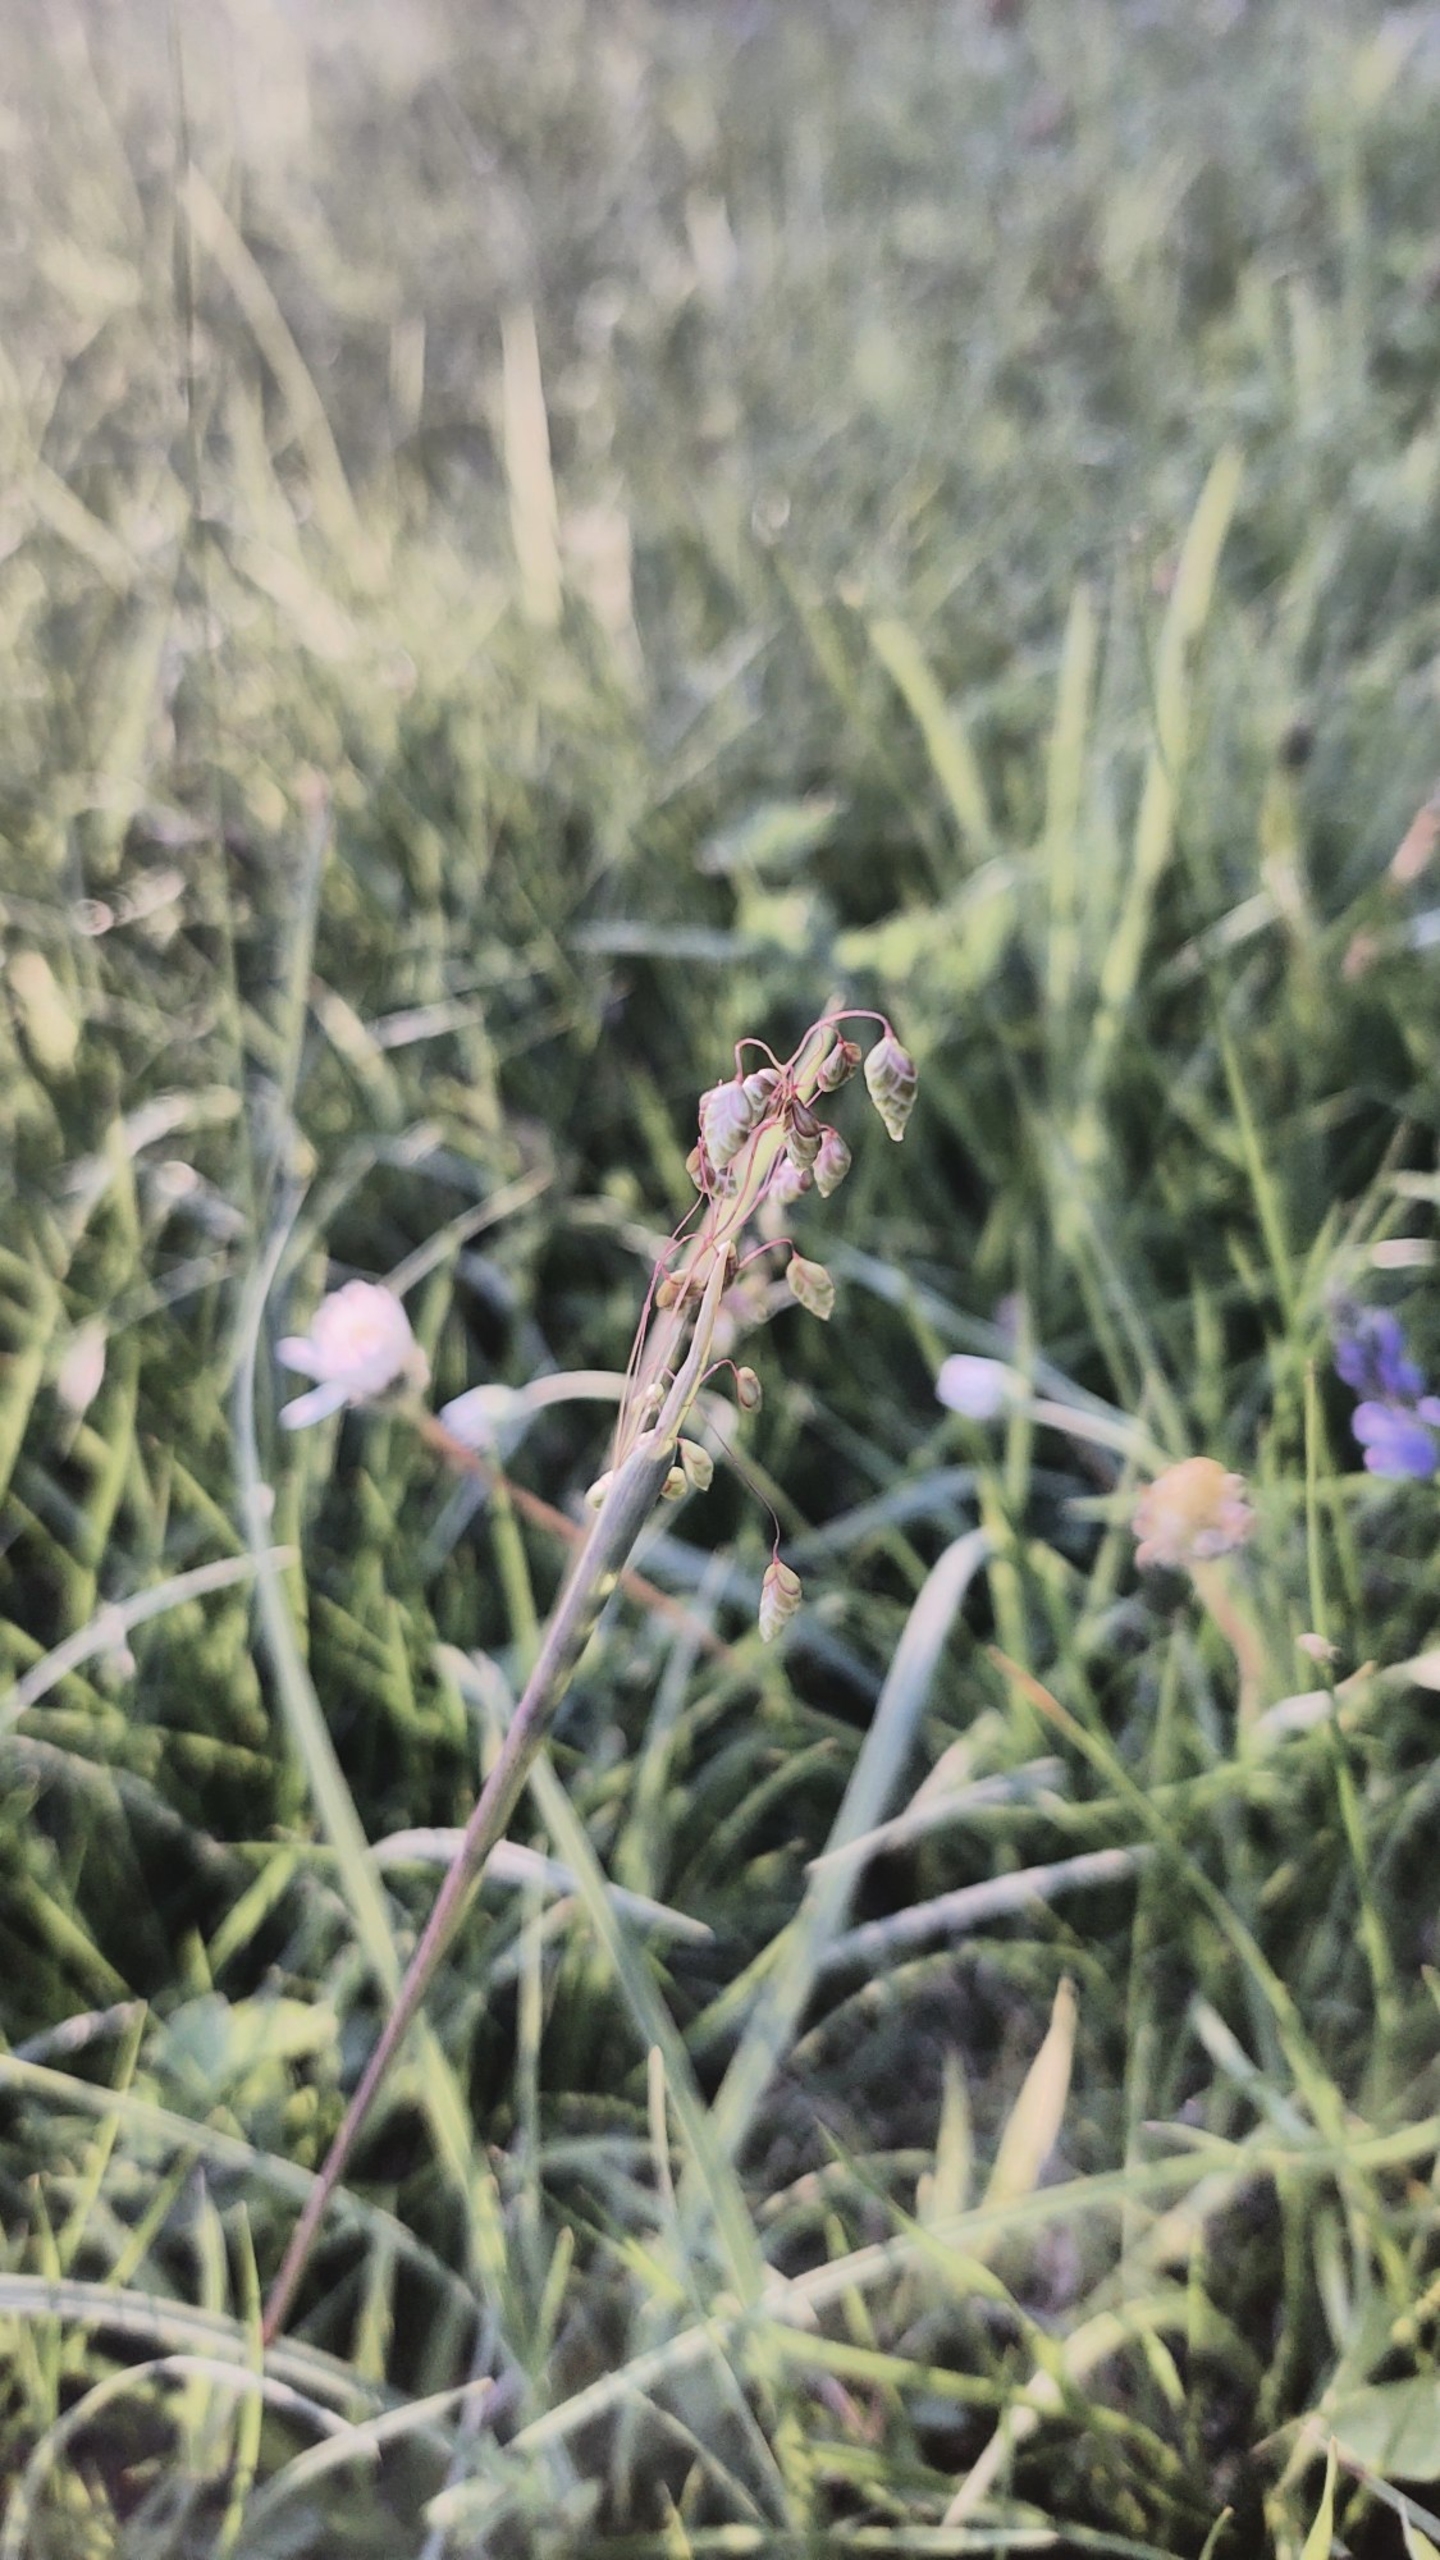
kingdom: Plantae
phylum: Tracheophyta
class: Liliopsida
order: Poales
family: Poaceae
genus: Briza
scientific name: Briza media
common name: Hjertegræs
